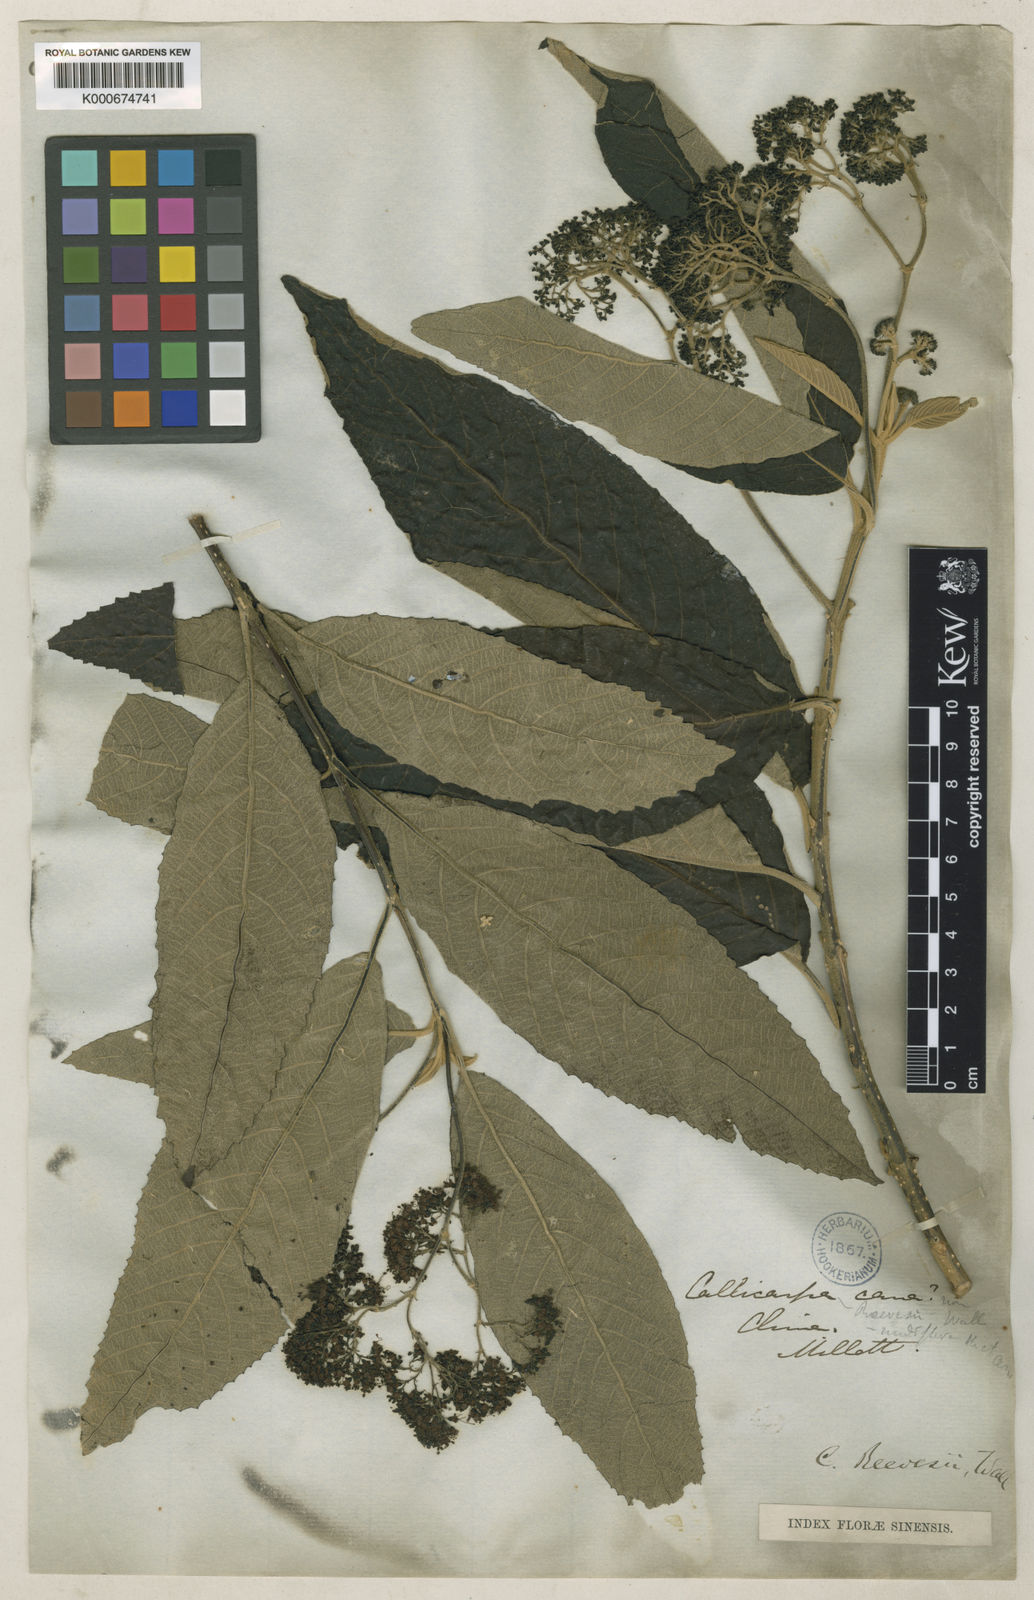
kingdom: Plantae
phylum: Tracheophyta
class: Magnoliopsida
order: Lamiales
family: Lamiaceae
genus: Callicarpa
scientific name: Callicarpa nudiflora
